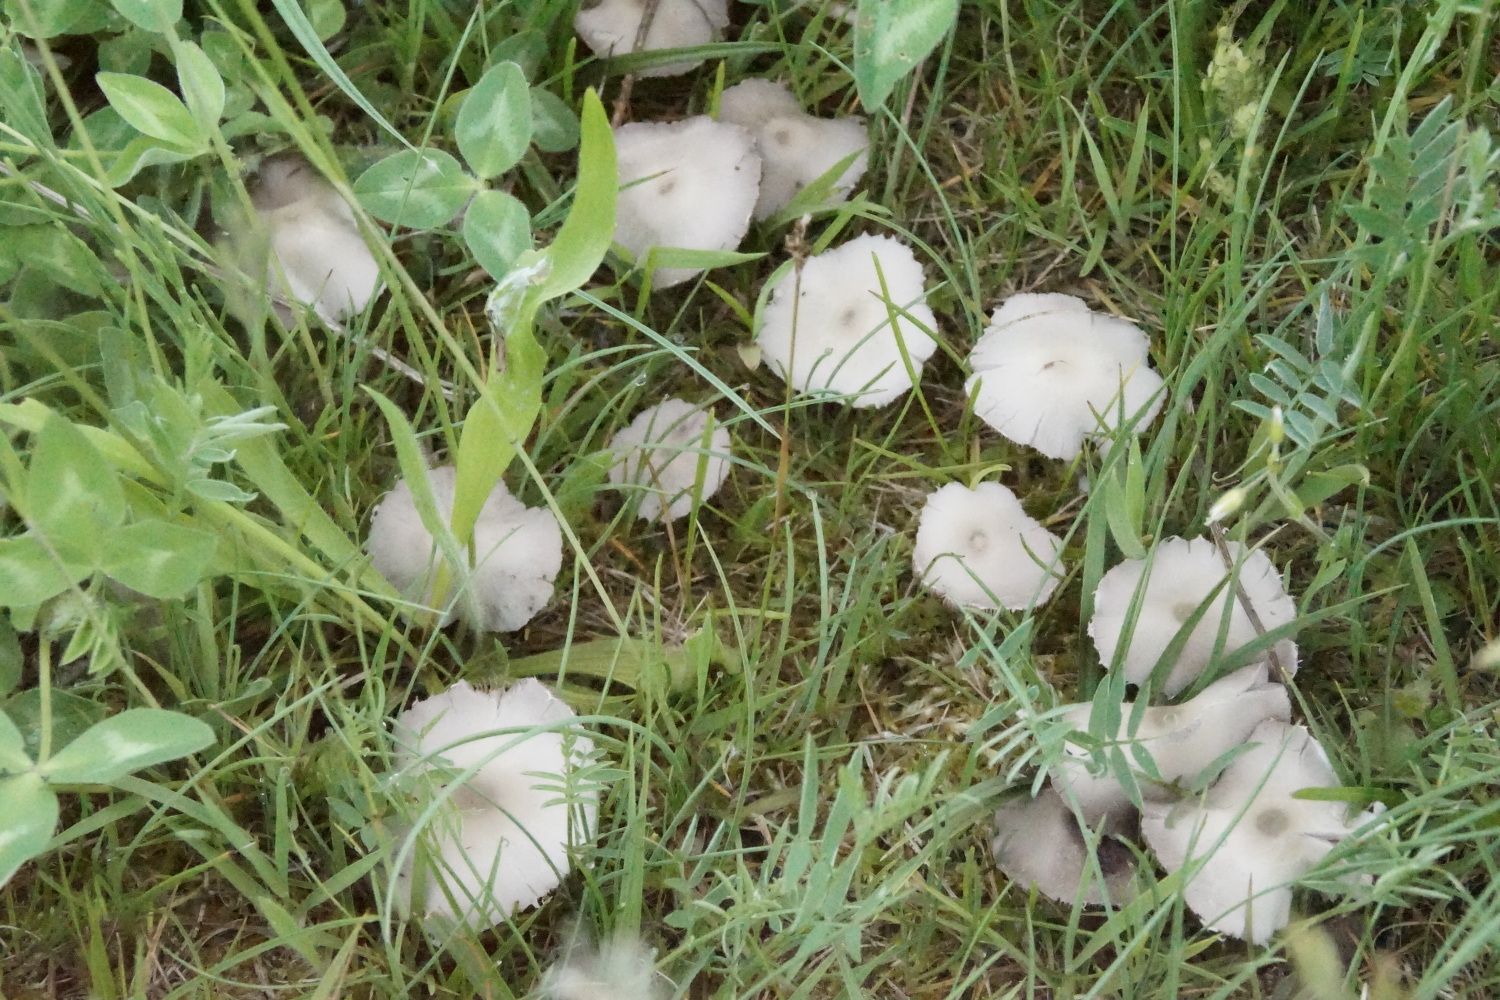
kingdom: Fungi
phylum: Basidiomycota
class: Agaricomycetes
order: Agaricales
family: Psathyrellaceae
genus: Candolleomyces
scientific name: Candolleomyces candolleanus
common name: Candolles mørkhat
